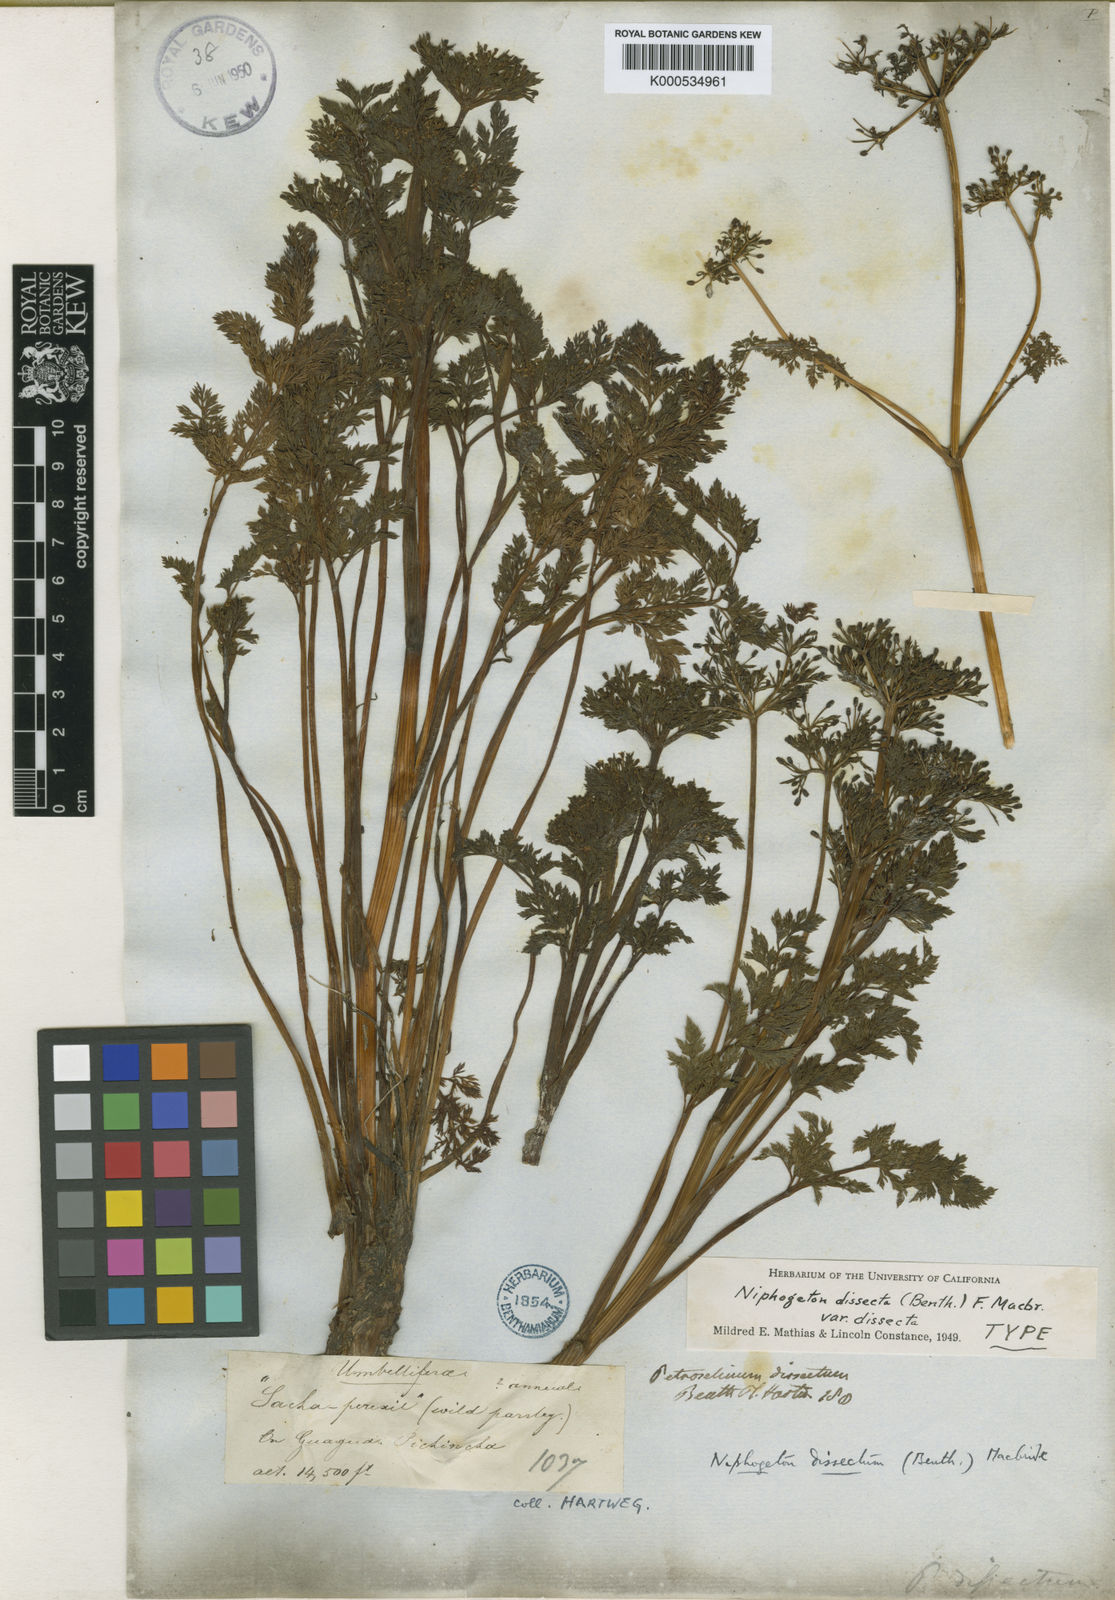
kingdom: Plantae
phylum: Tracheophyta
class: Magnoliopsida
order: Apiales
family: Apiaceae
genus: Niphogeton
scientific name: Niphogeton dissecta
